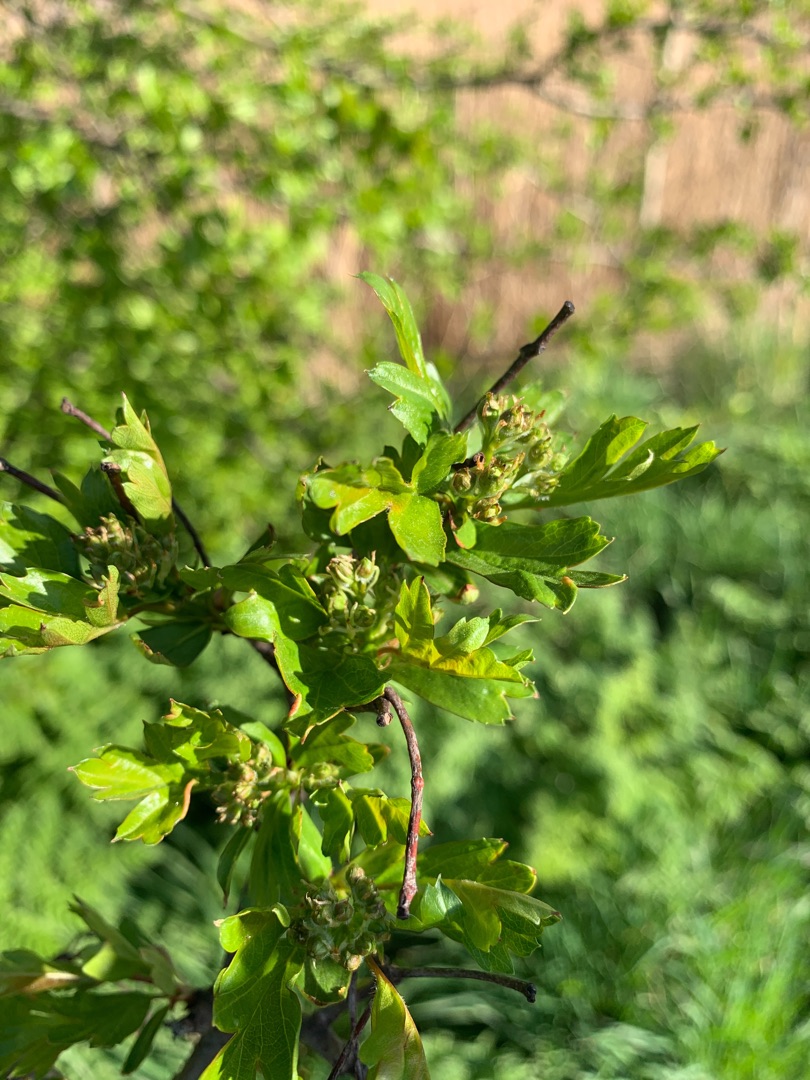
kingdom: Plantae
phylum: Tracheophyta
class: Magnoliopsida
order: Rosales
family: Rosaceae
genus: Crataegus
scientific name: Crataegus monogyna
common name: Engriflet hvidtjørn
